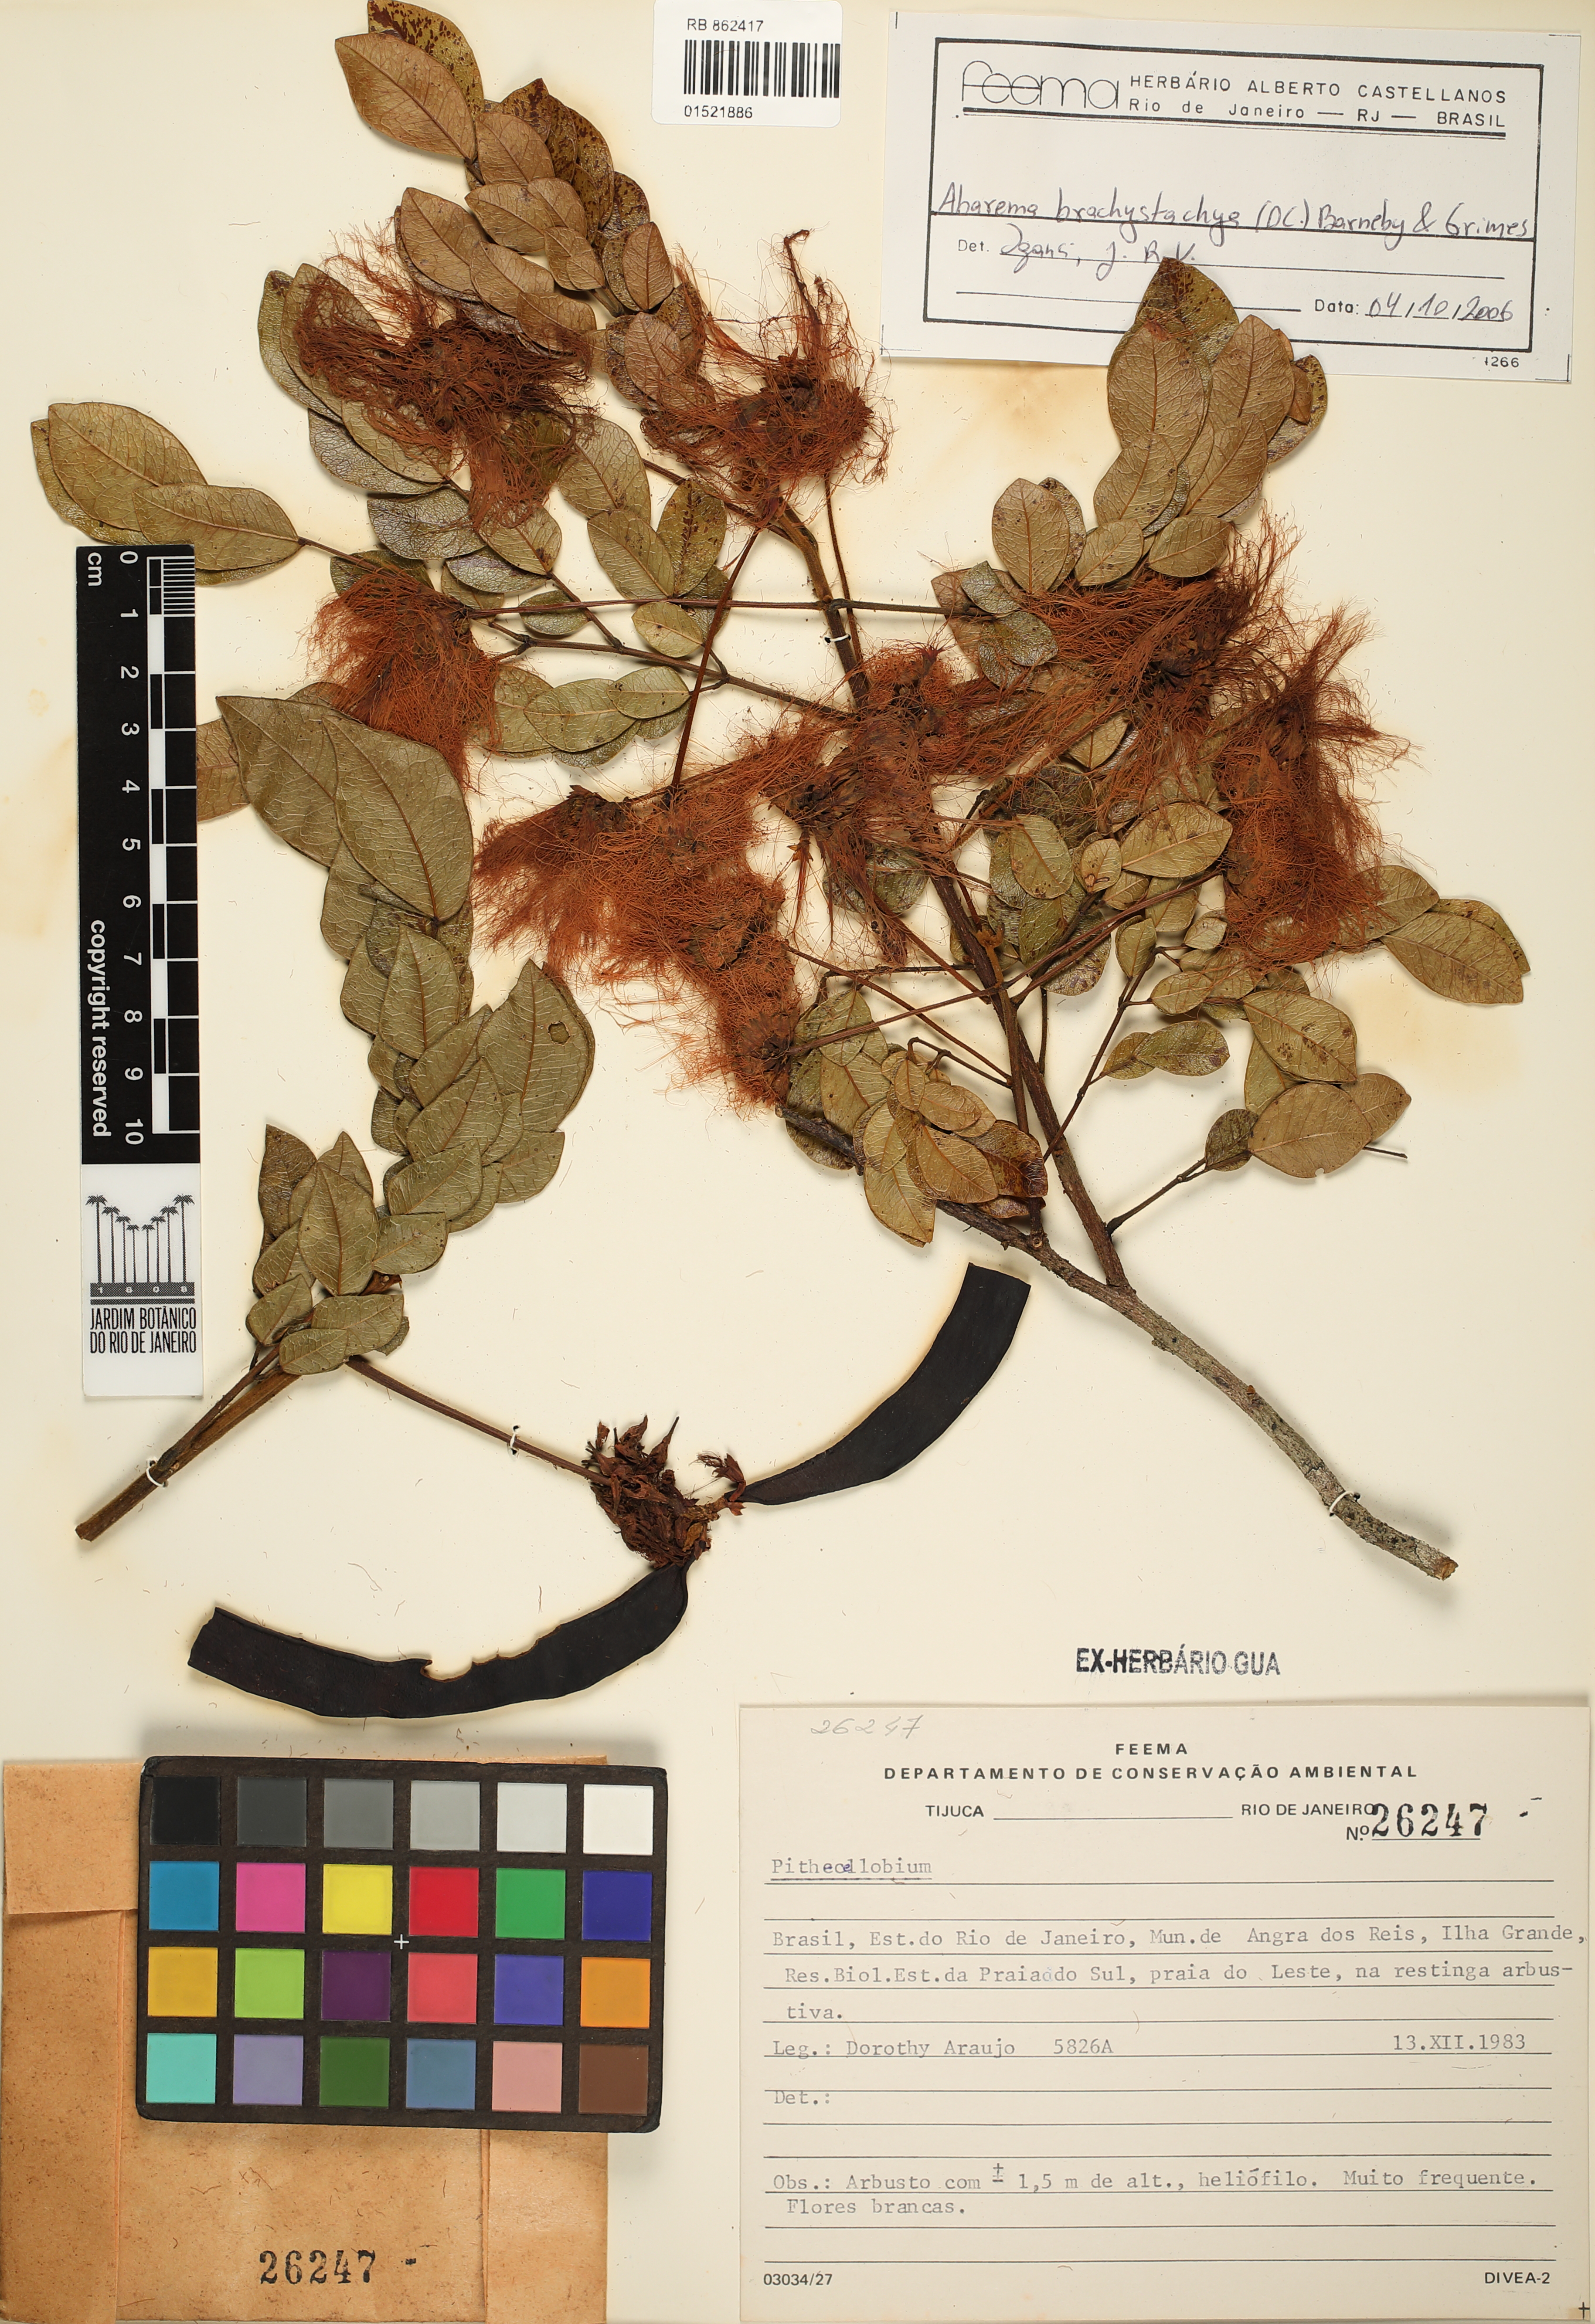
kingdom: Plantae
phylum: Tracheophyta
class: Magnoliopsida
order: Fabales
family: Fabaceae
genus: Jupunba
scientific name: Jupunba brachystachya
